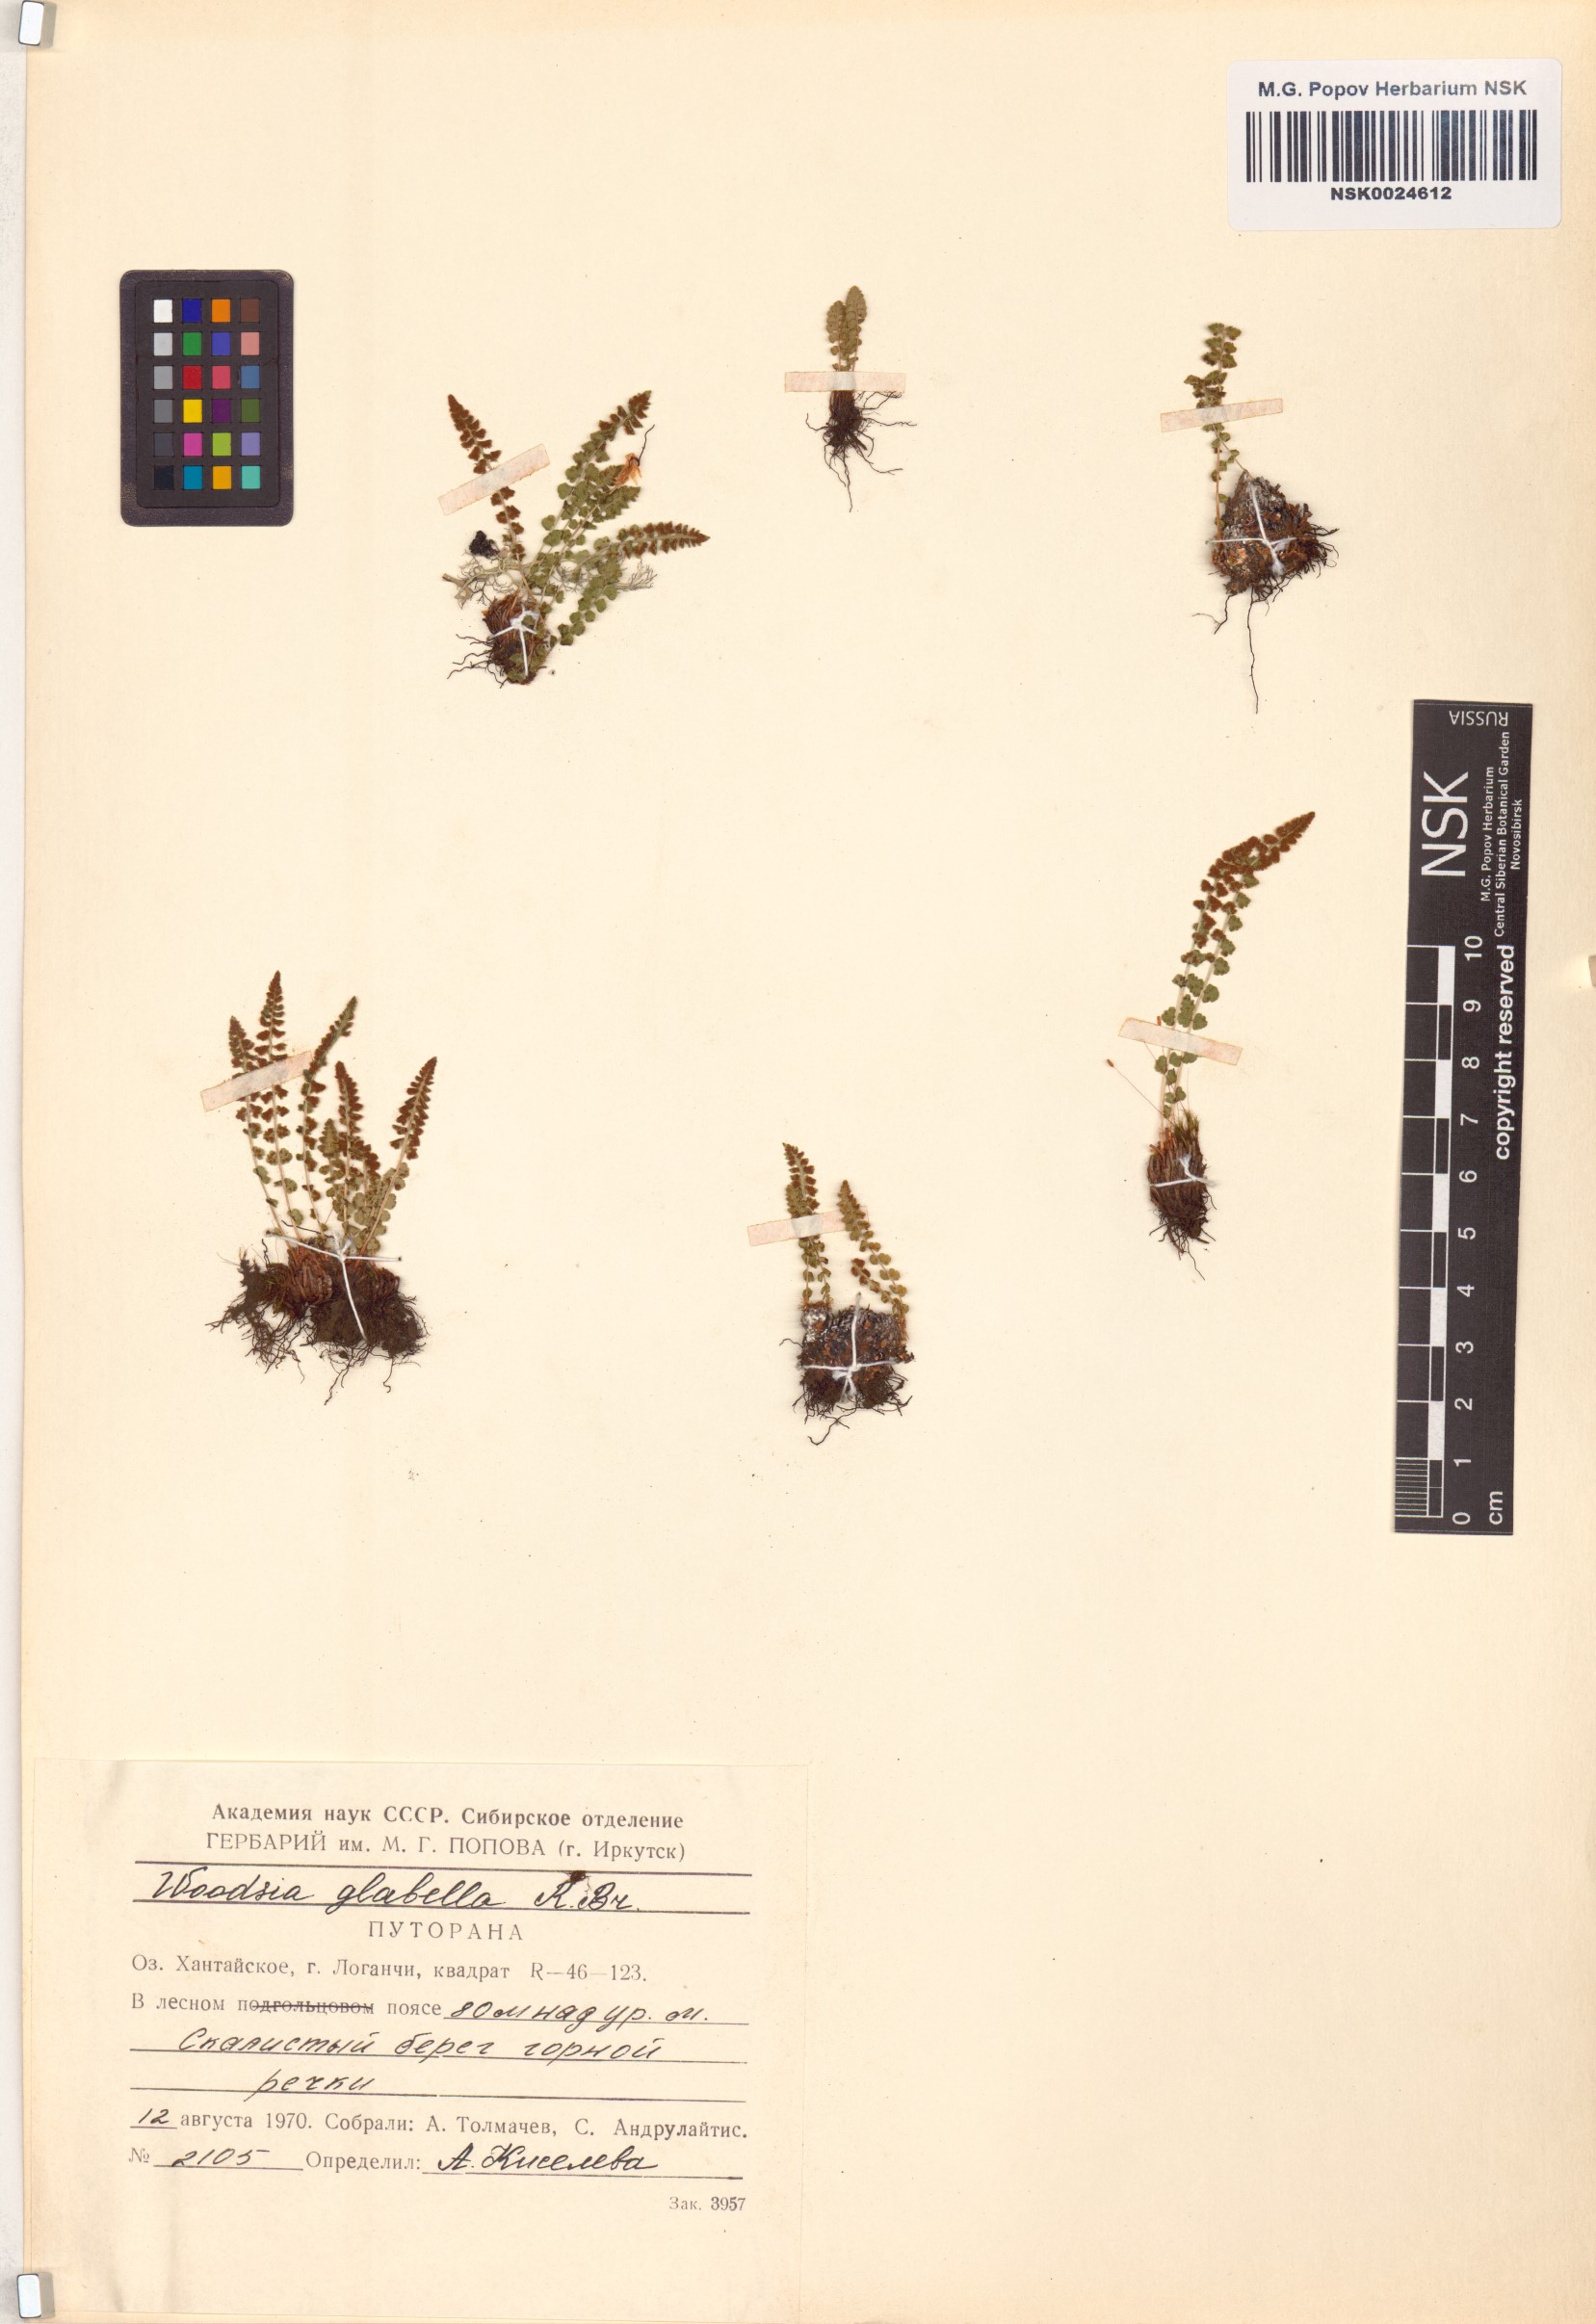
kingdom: Plantae
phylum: Tracheophyta
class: Polypodiopsida
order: Polypodiales
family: Woodsiaceae
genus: Woodsia
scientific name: Woodsia glabella
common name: Smooth woodsia
